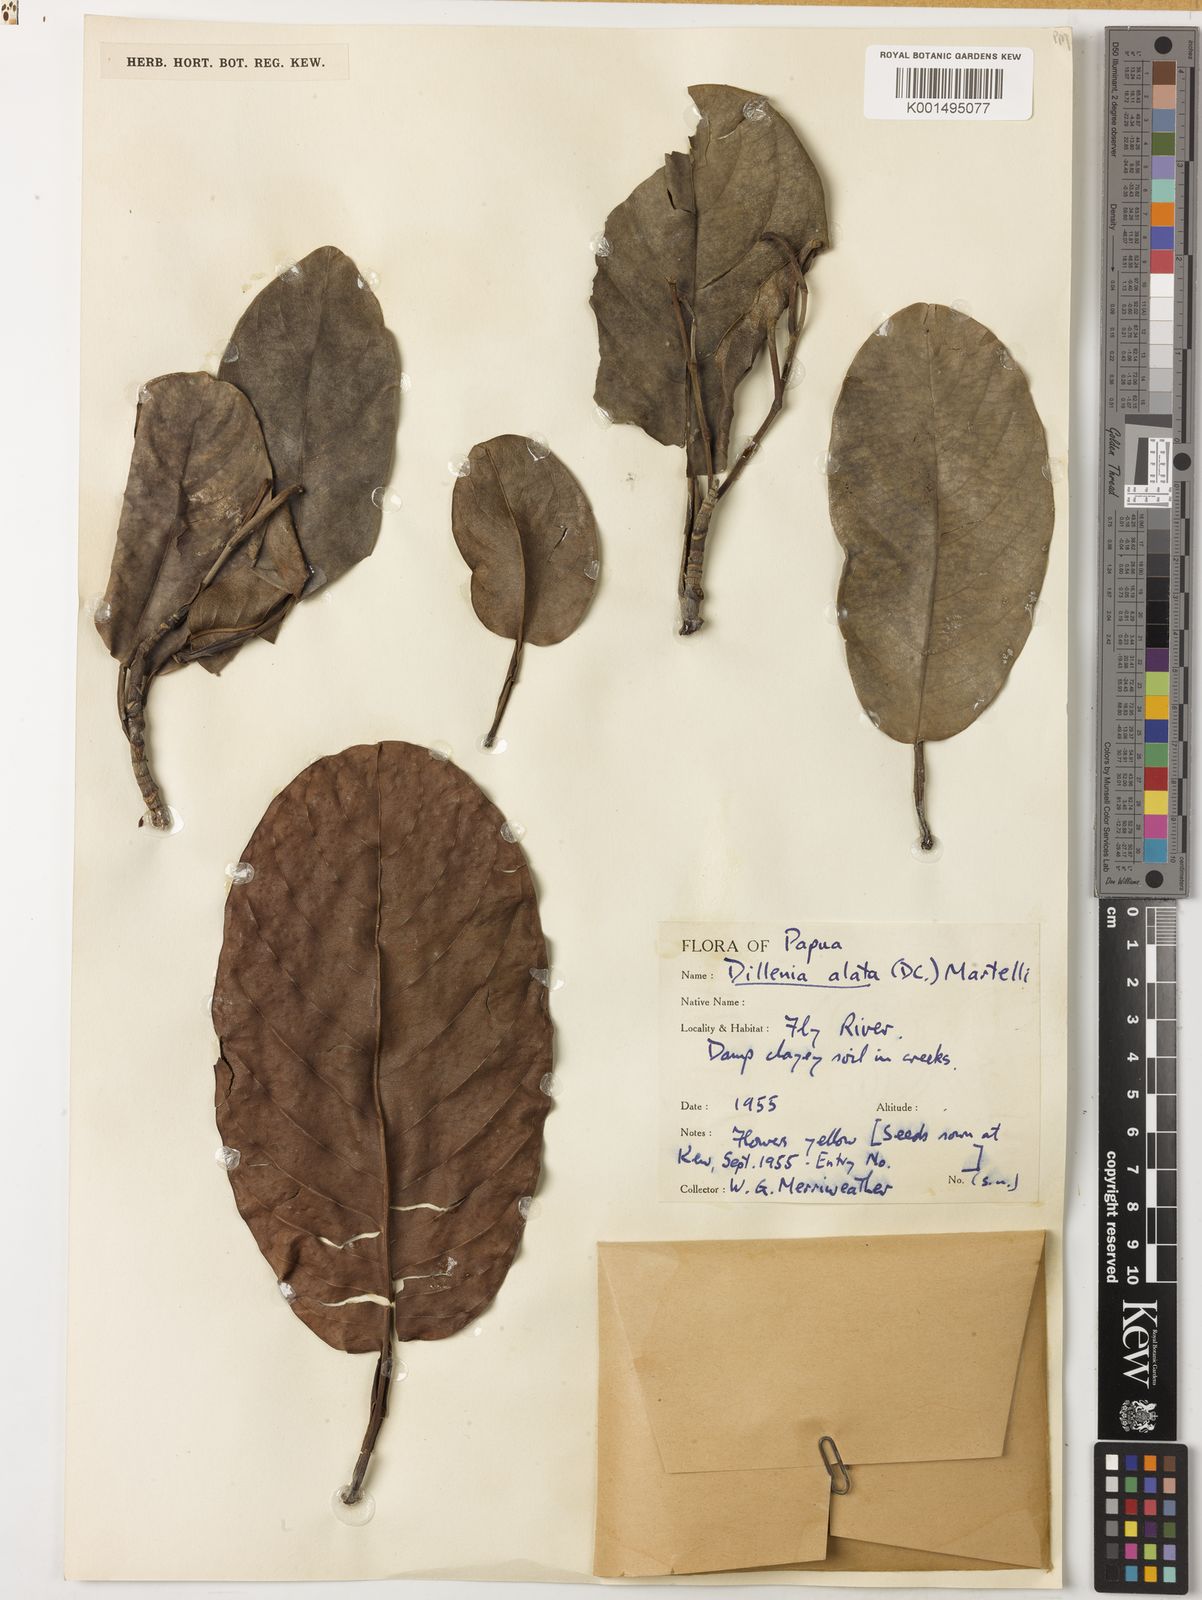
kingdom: Plantae
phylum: Tracheophyta
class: Magnoliopsida
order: Dilleniales
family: Dilleniaceae
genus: Dillenia
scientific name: Dillenia alata
